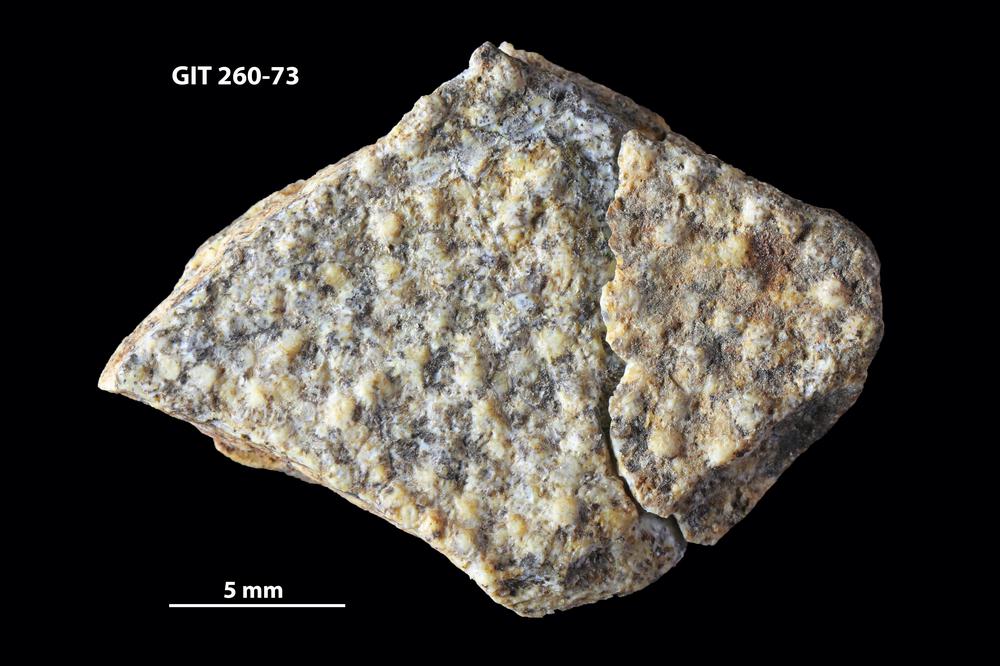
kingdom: Animalia
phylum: Chordata
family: Homostiidae
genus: Homostius
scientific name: Homostius
